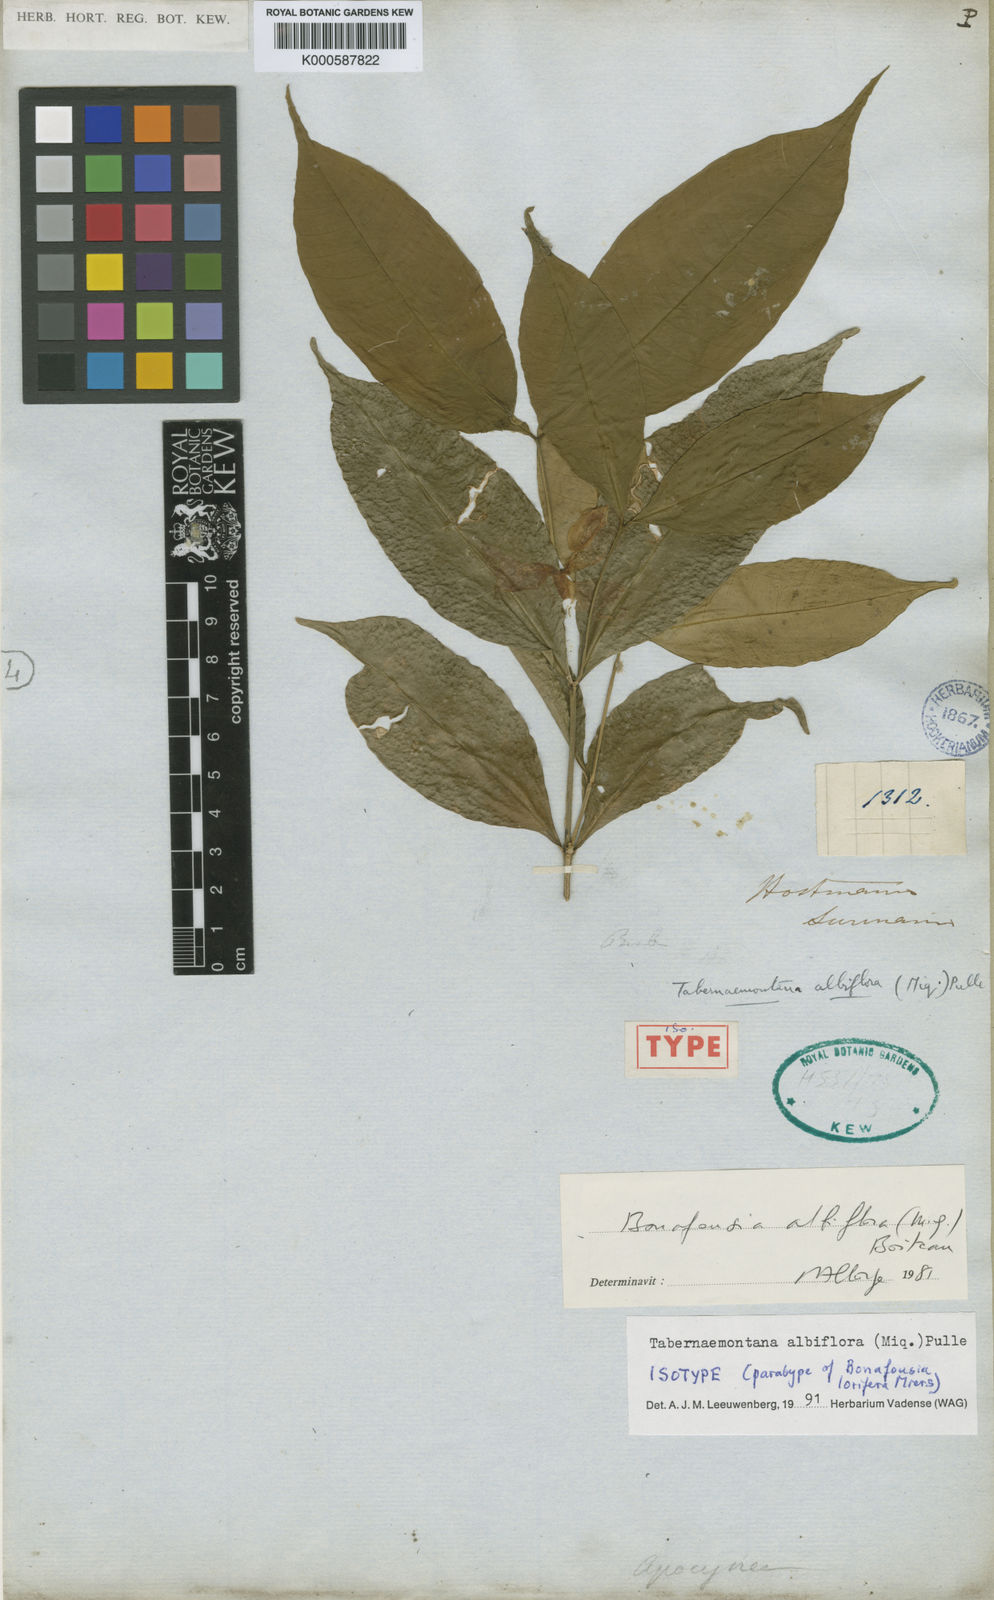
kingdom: Plantae
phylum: Tracheophyta
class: Magnoliopsida
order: Gentianales
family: Apocynaceae
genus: Tabernaemontana
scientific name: Tabernaemontana albiflora
